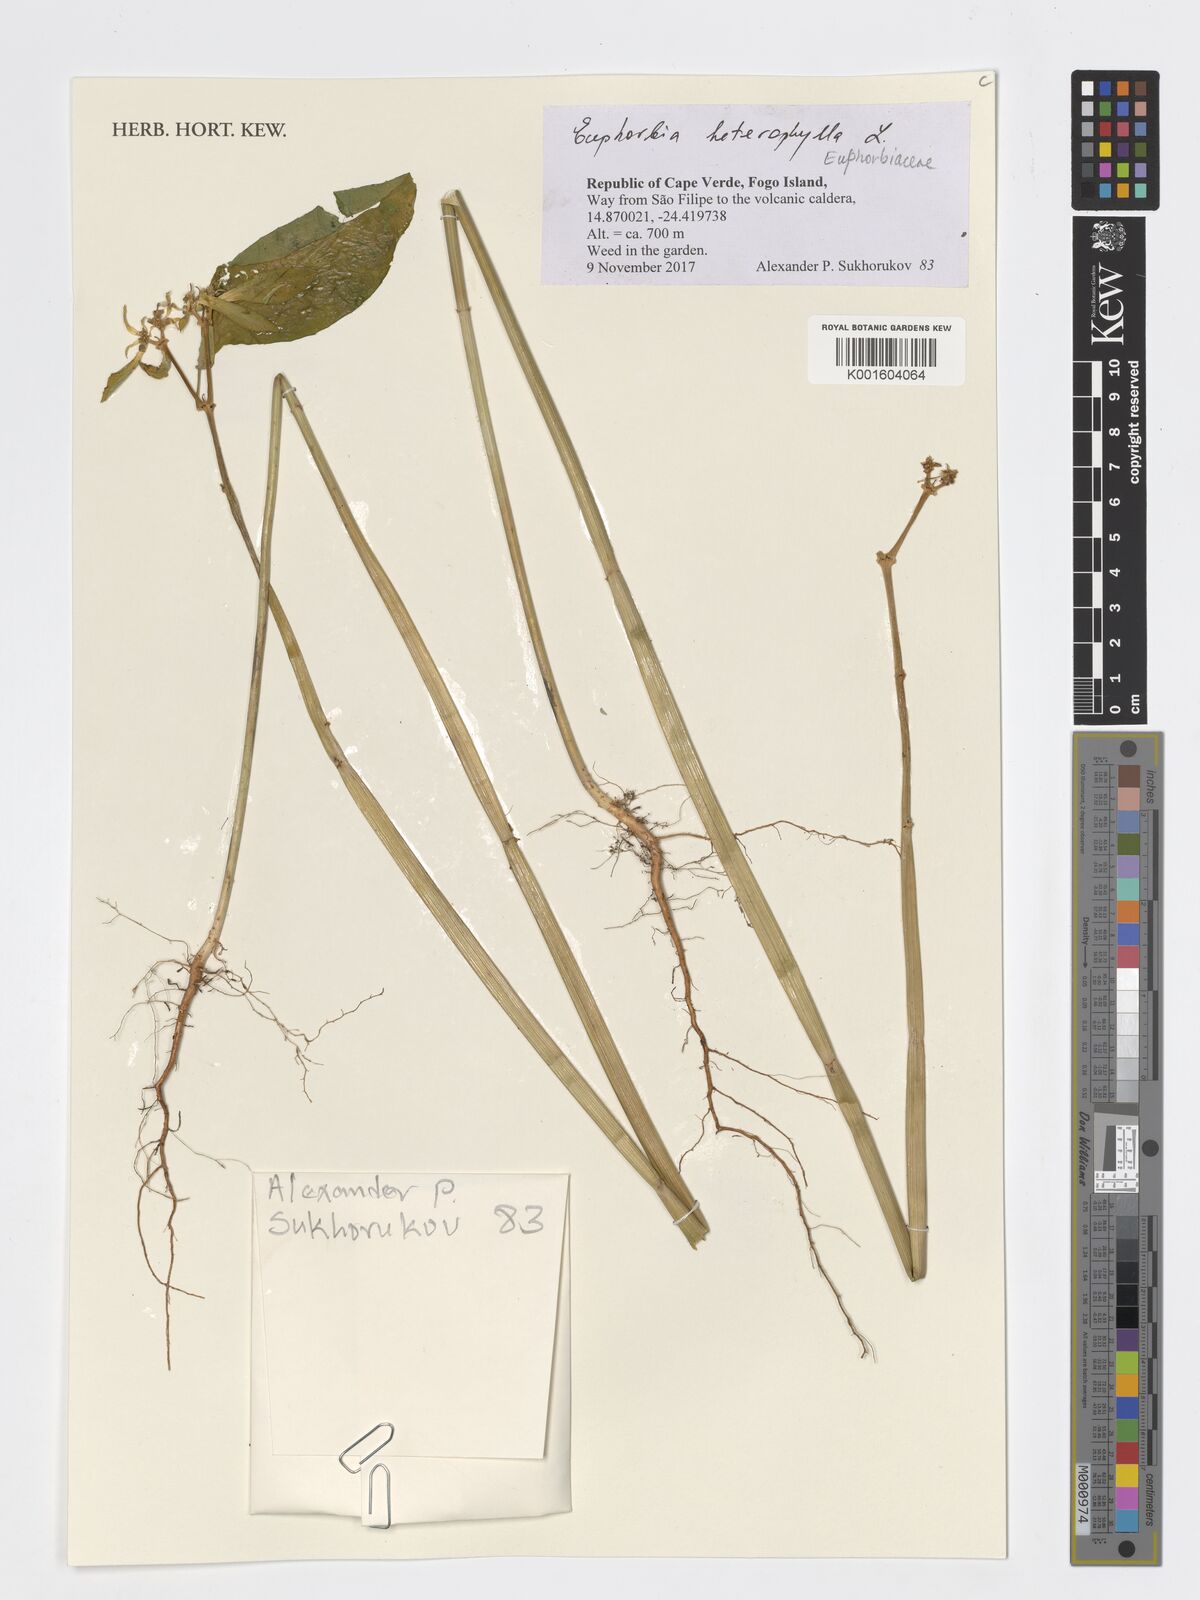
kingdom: Plantae
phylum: Tracheophyta
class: Magnoliopsida
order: Malpighiales
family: Euphorbiaceae
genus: Euphorbia
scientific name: Euphorbia heterophylla
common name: Mexican fireplant
